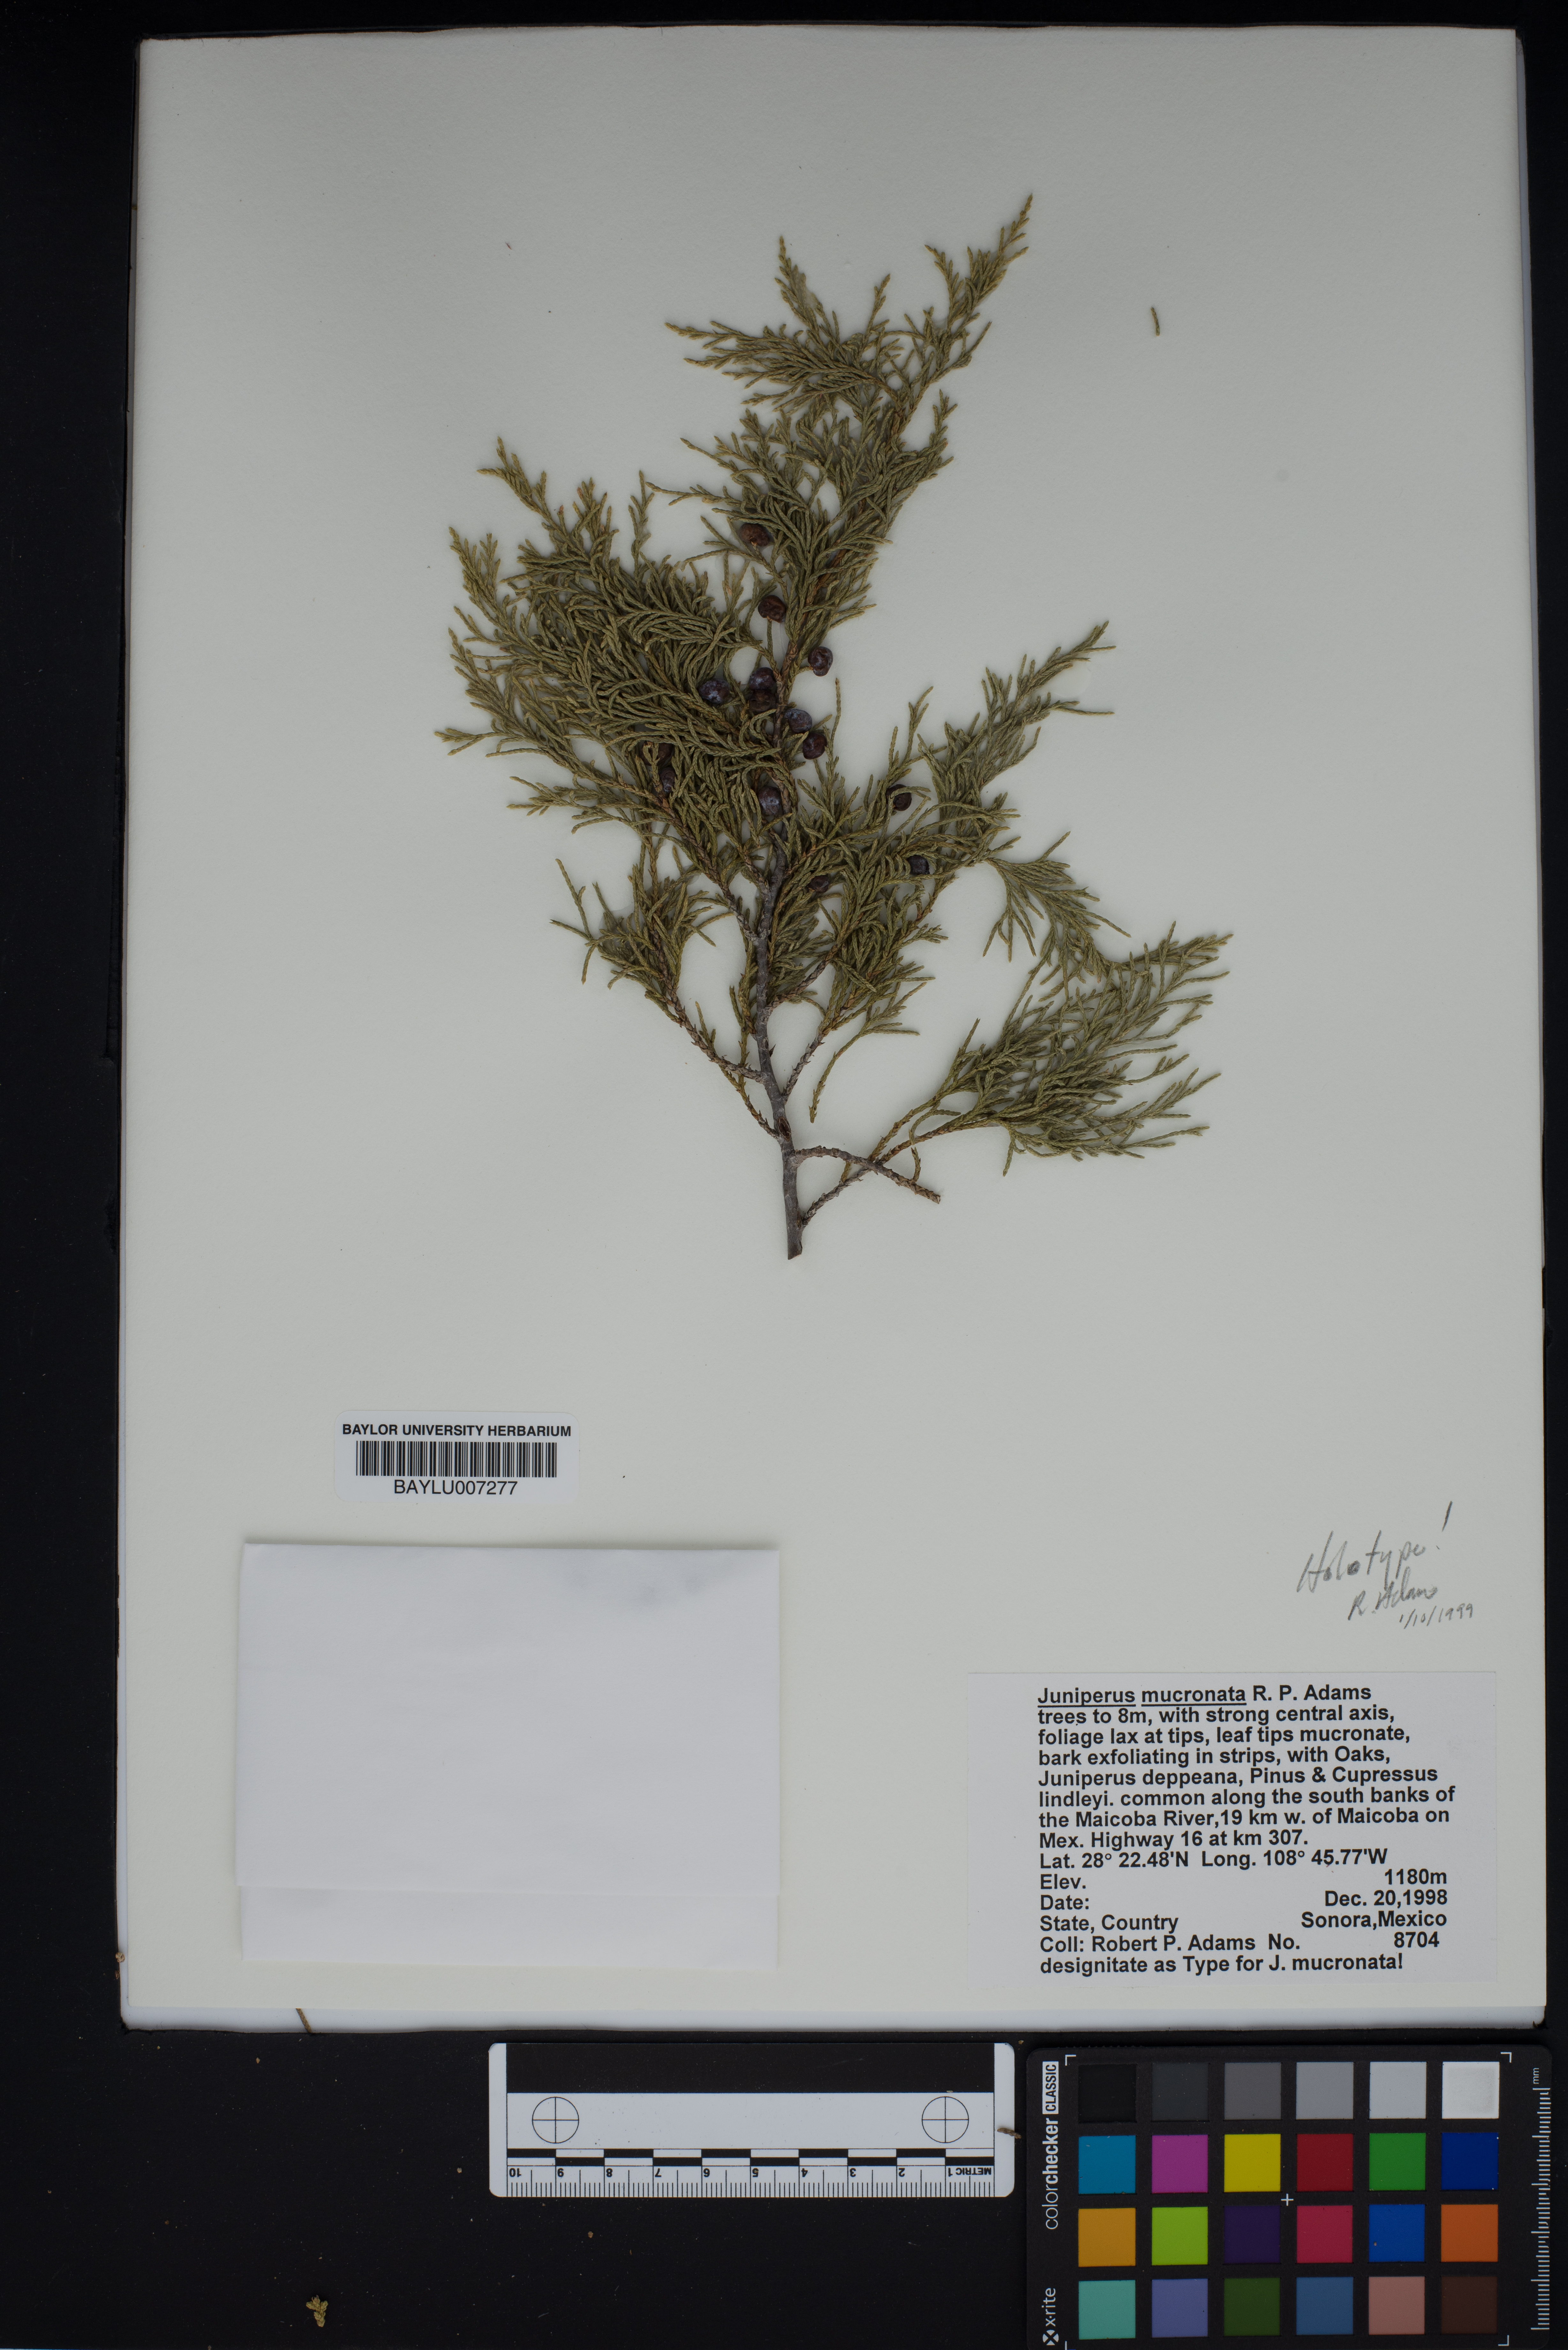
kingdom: Plantae
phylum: Tracheophyta
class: Pinopsida
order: Pinales
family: Cupressaceae
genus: Juniperus
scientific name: Juniperus blancoi
